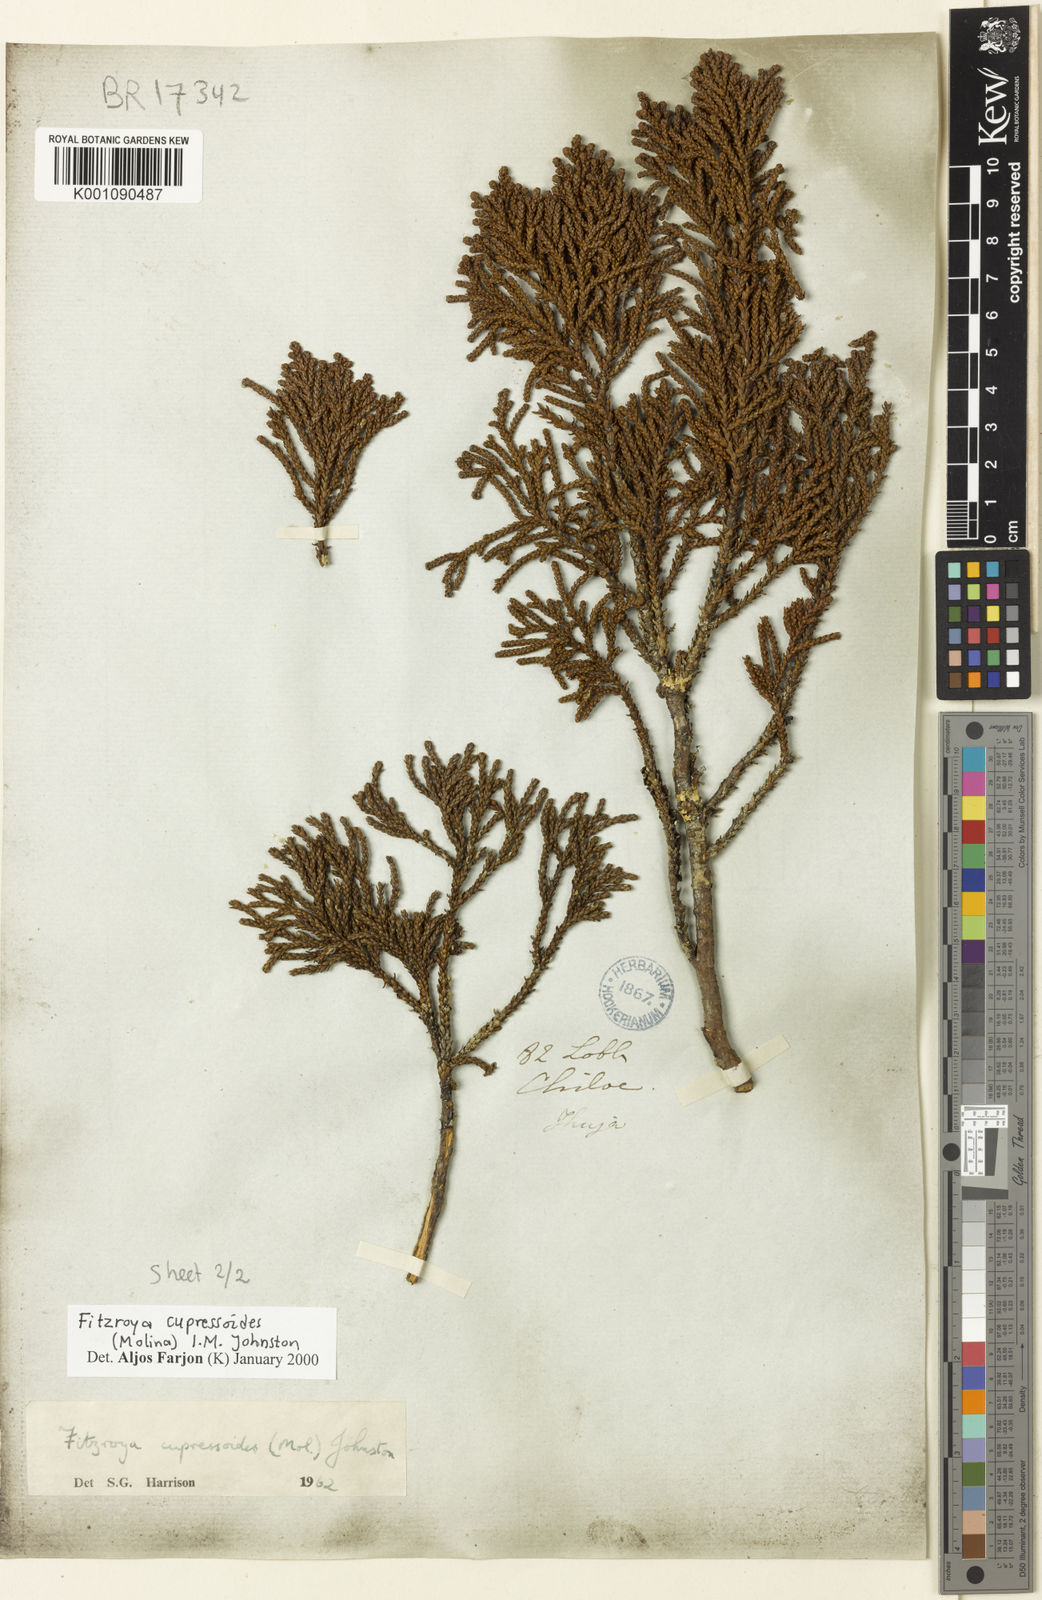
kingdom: Plantae
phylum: Tracheophyta
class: Pinopsida
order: Pinales
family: Cupressaceae
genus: Fitzroya
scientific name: Fitzroya cupressoides
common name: Patagonian cypress
